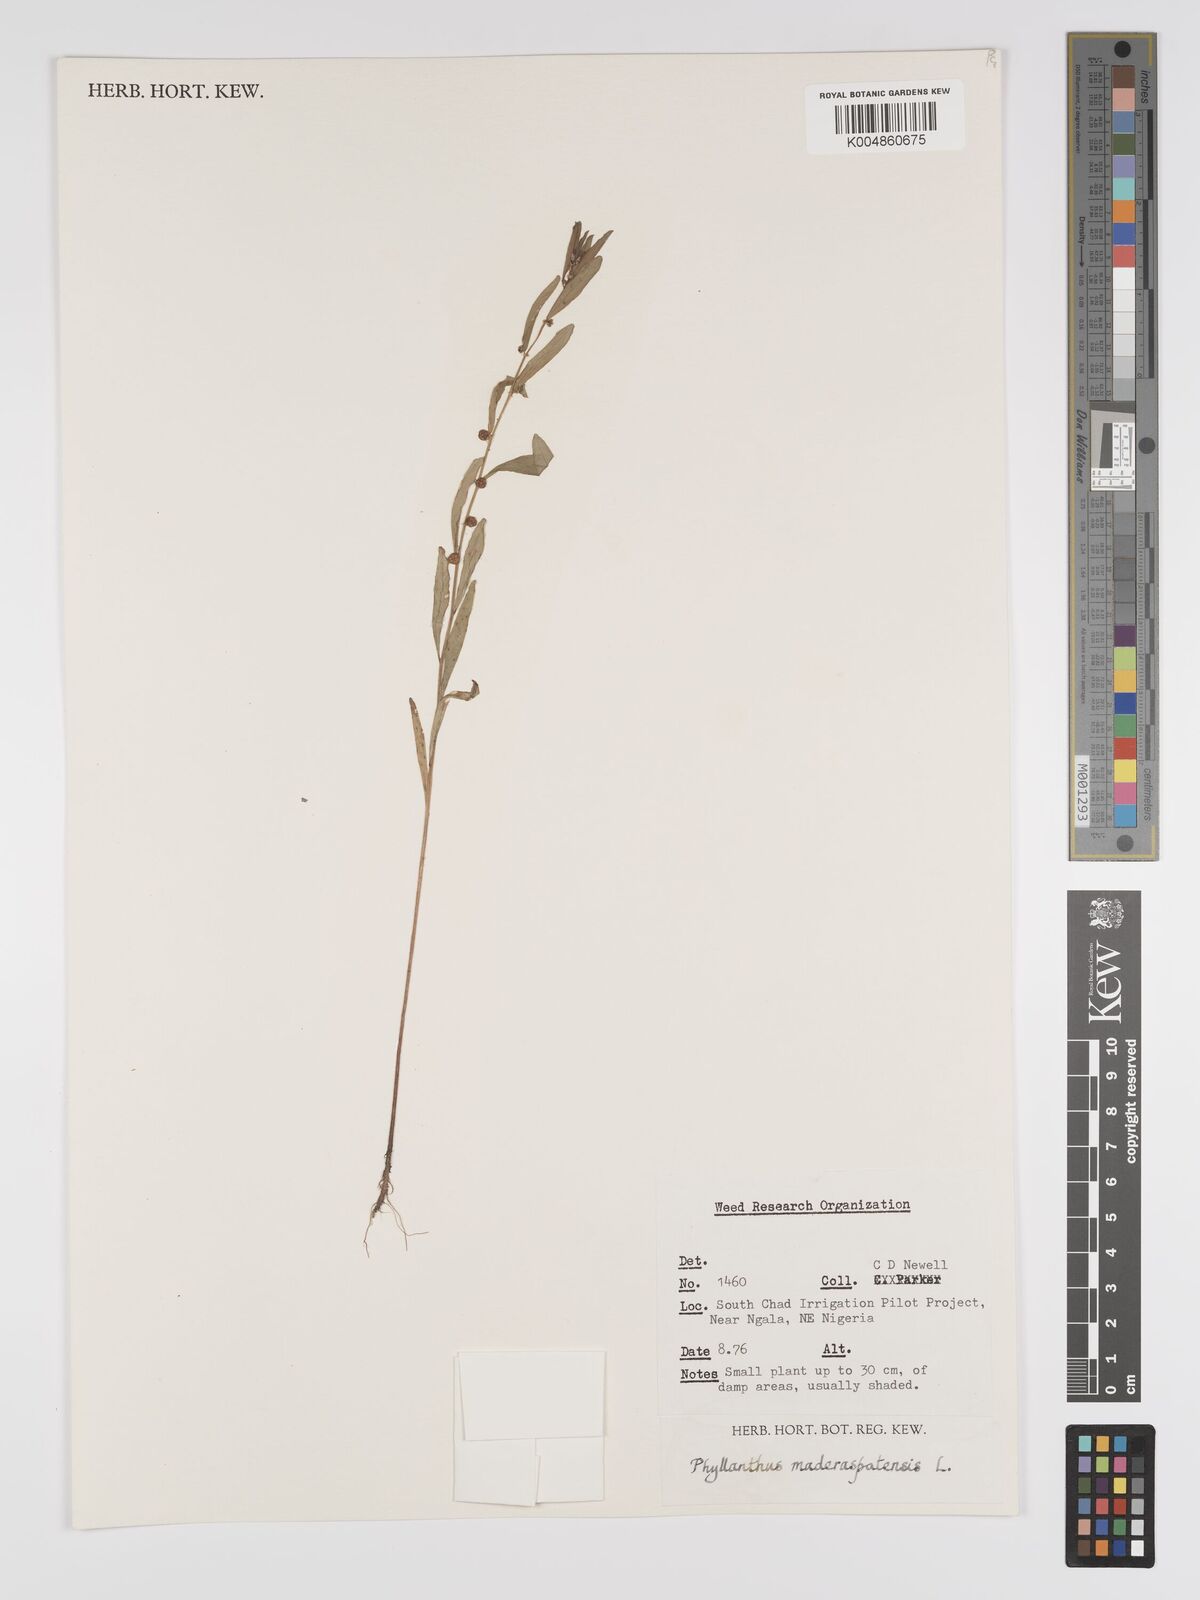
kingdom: Plantae
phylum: Tracheophyta
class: Magnoliopsida
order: Malpighiales
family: Phyllanthaceae
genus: Phyllanthus
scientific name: Phyllanthus
